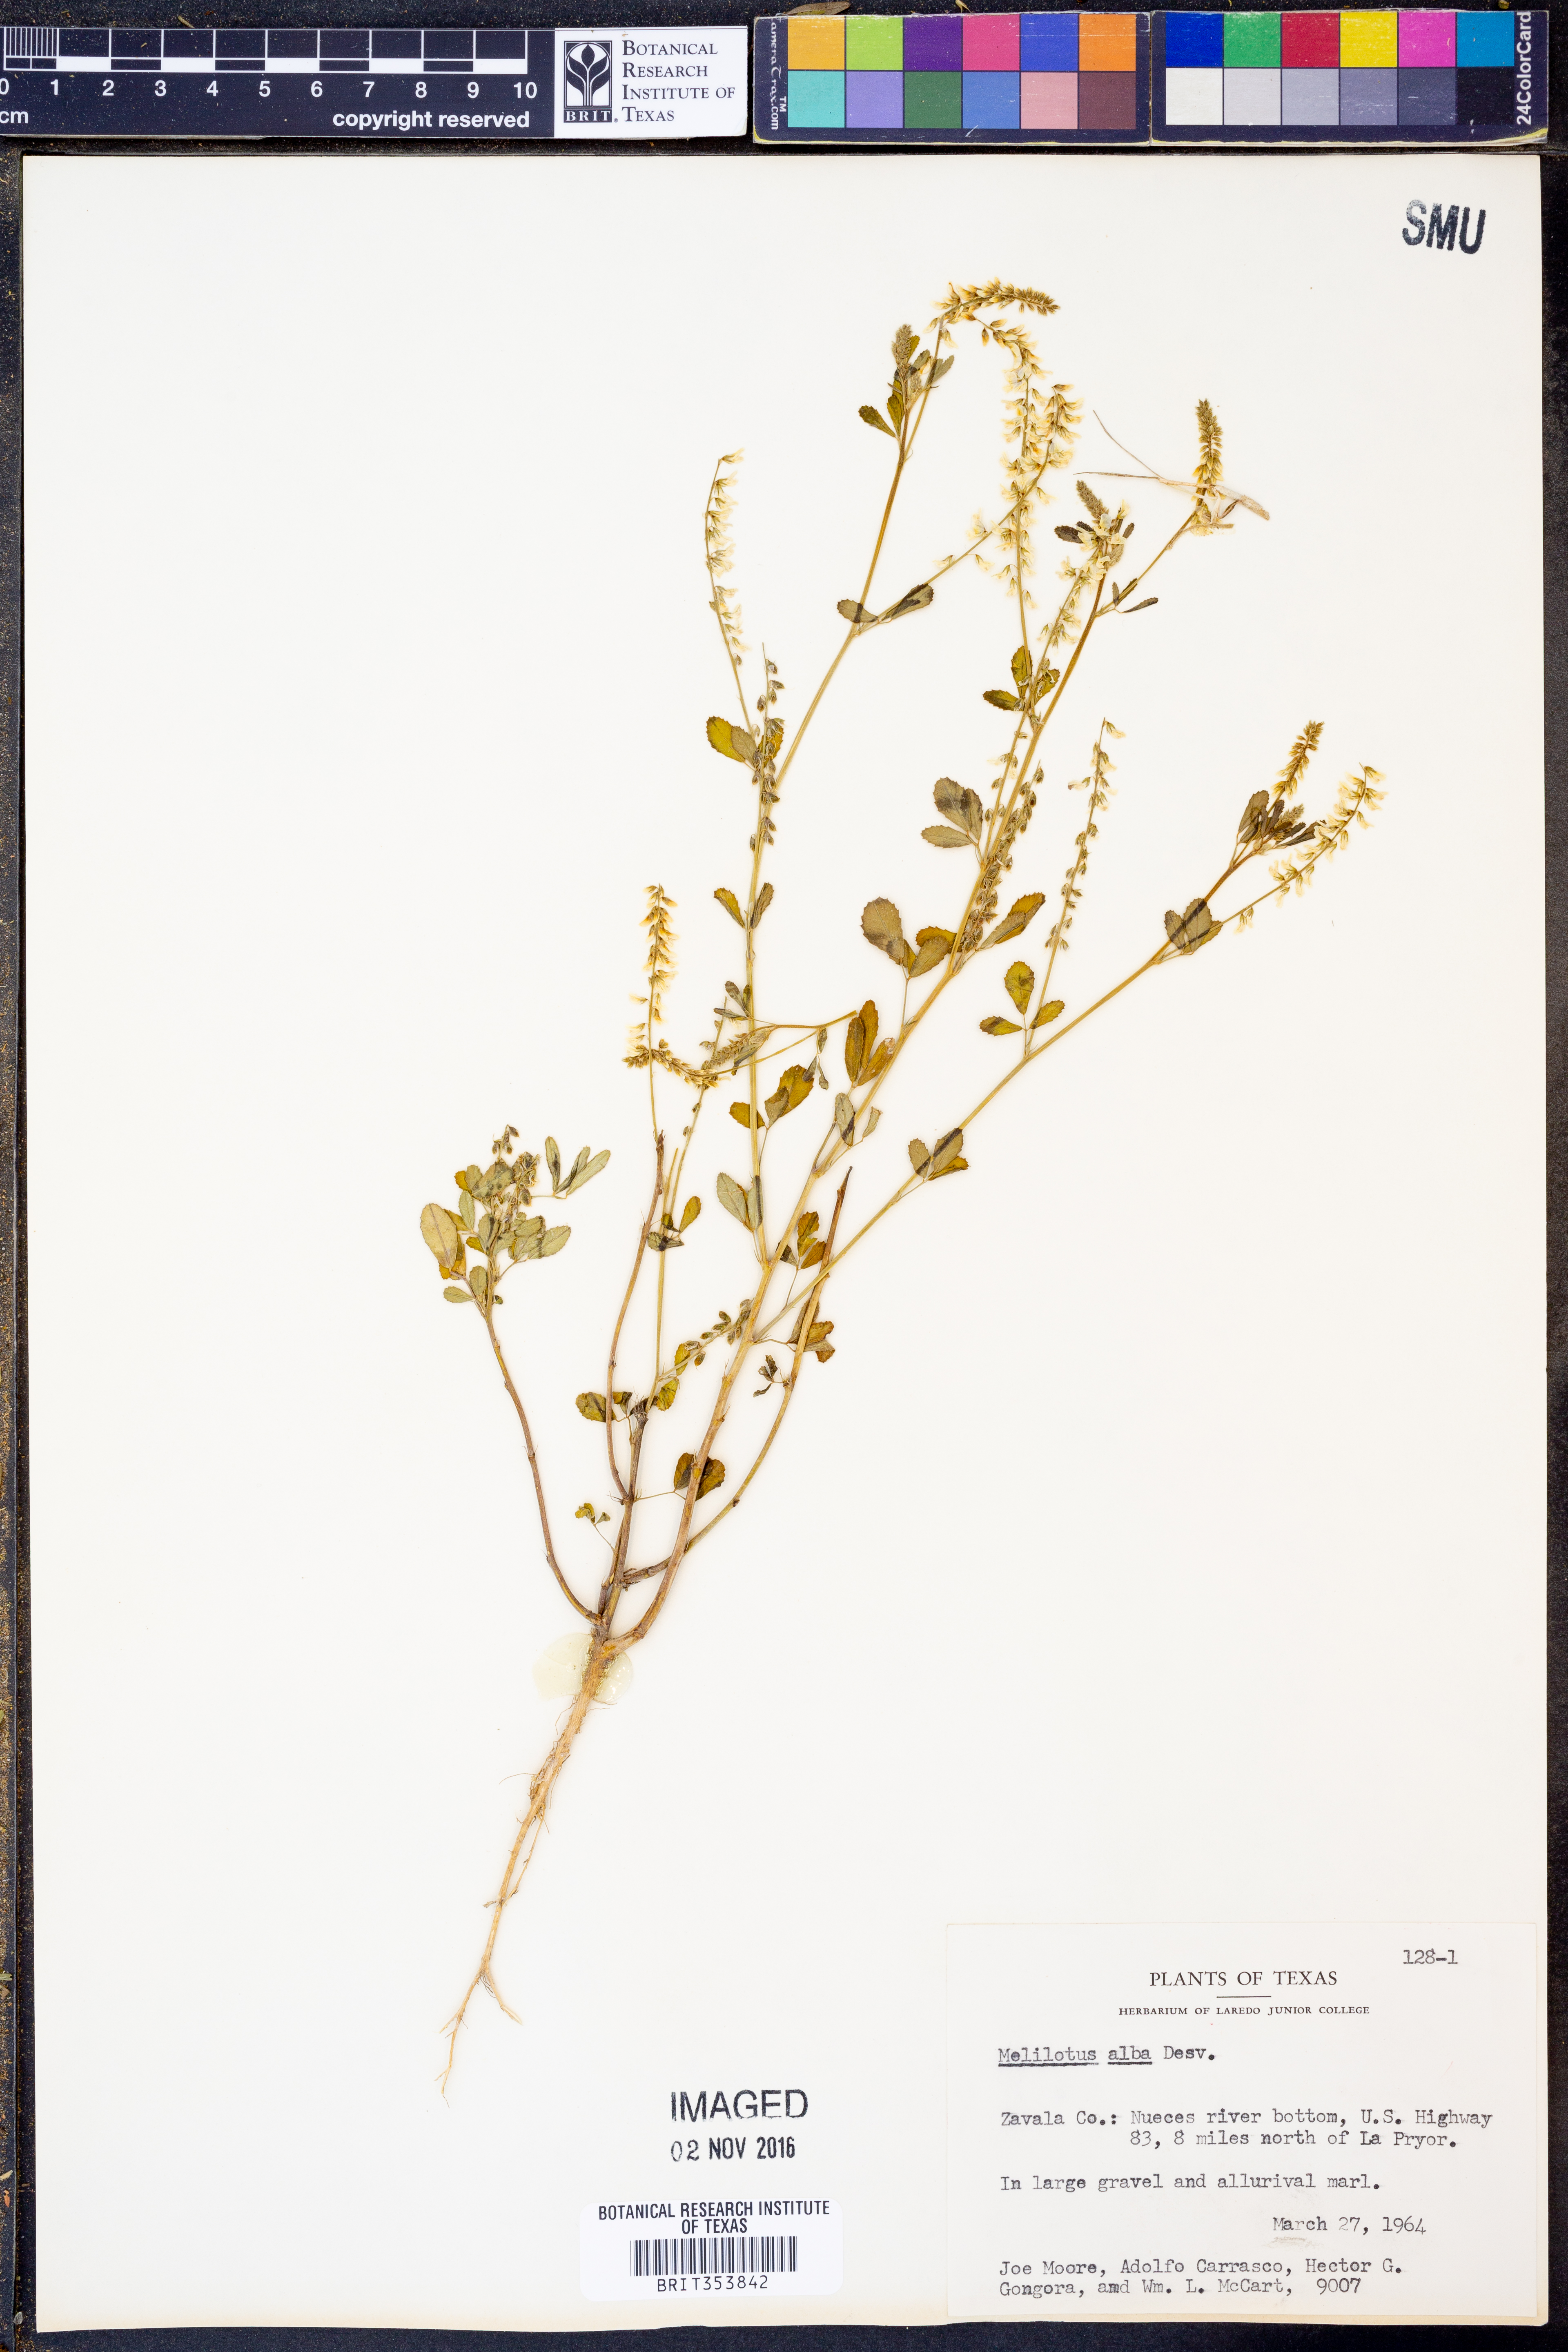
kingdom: Plantae
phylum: Tracheophyta
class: Magnoliopsida
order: Fabales
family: Fabaceae
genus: Melilotus
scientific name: Melilotus albus
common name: White melilot
